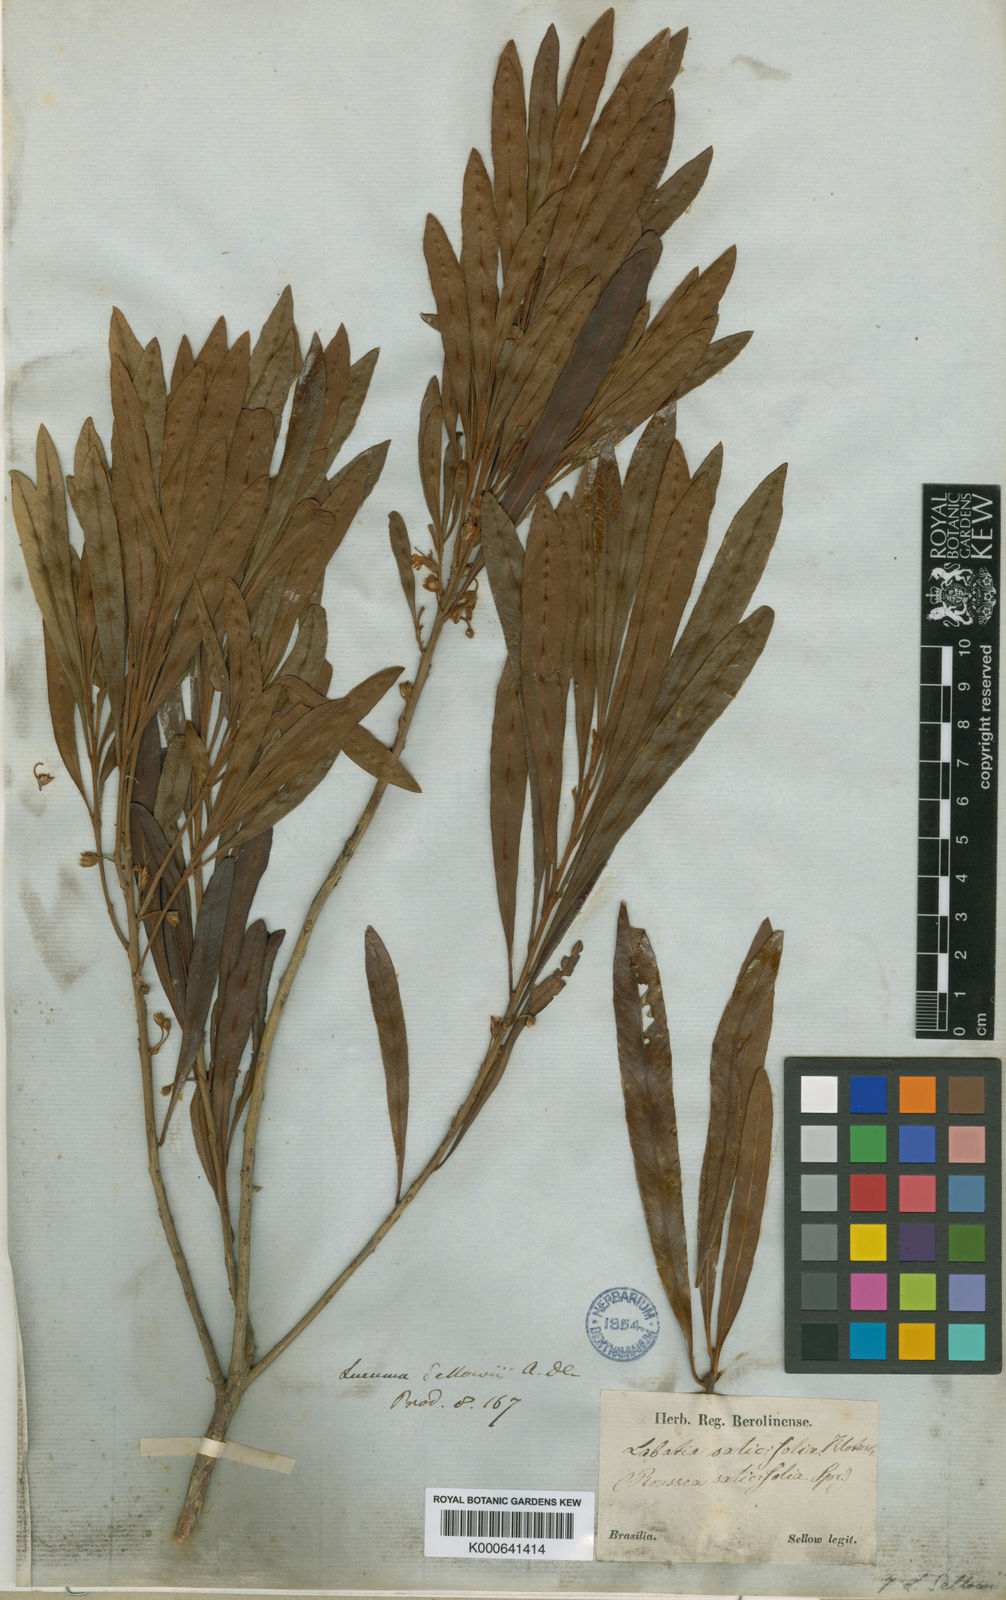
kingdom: Plantae
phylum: Tracheophyta
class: Magnoliopsida
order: Ericales
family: Sapotaceae
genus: Pouteria
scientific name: Pouteria salicifolia
